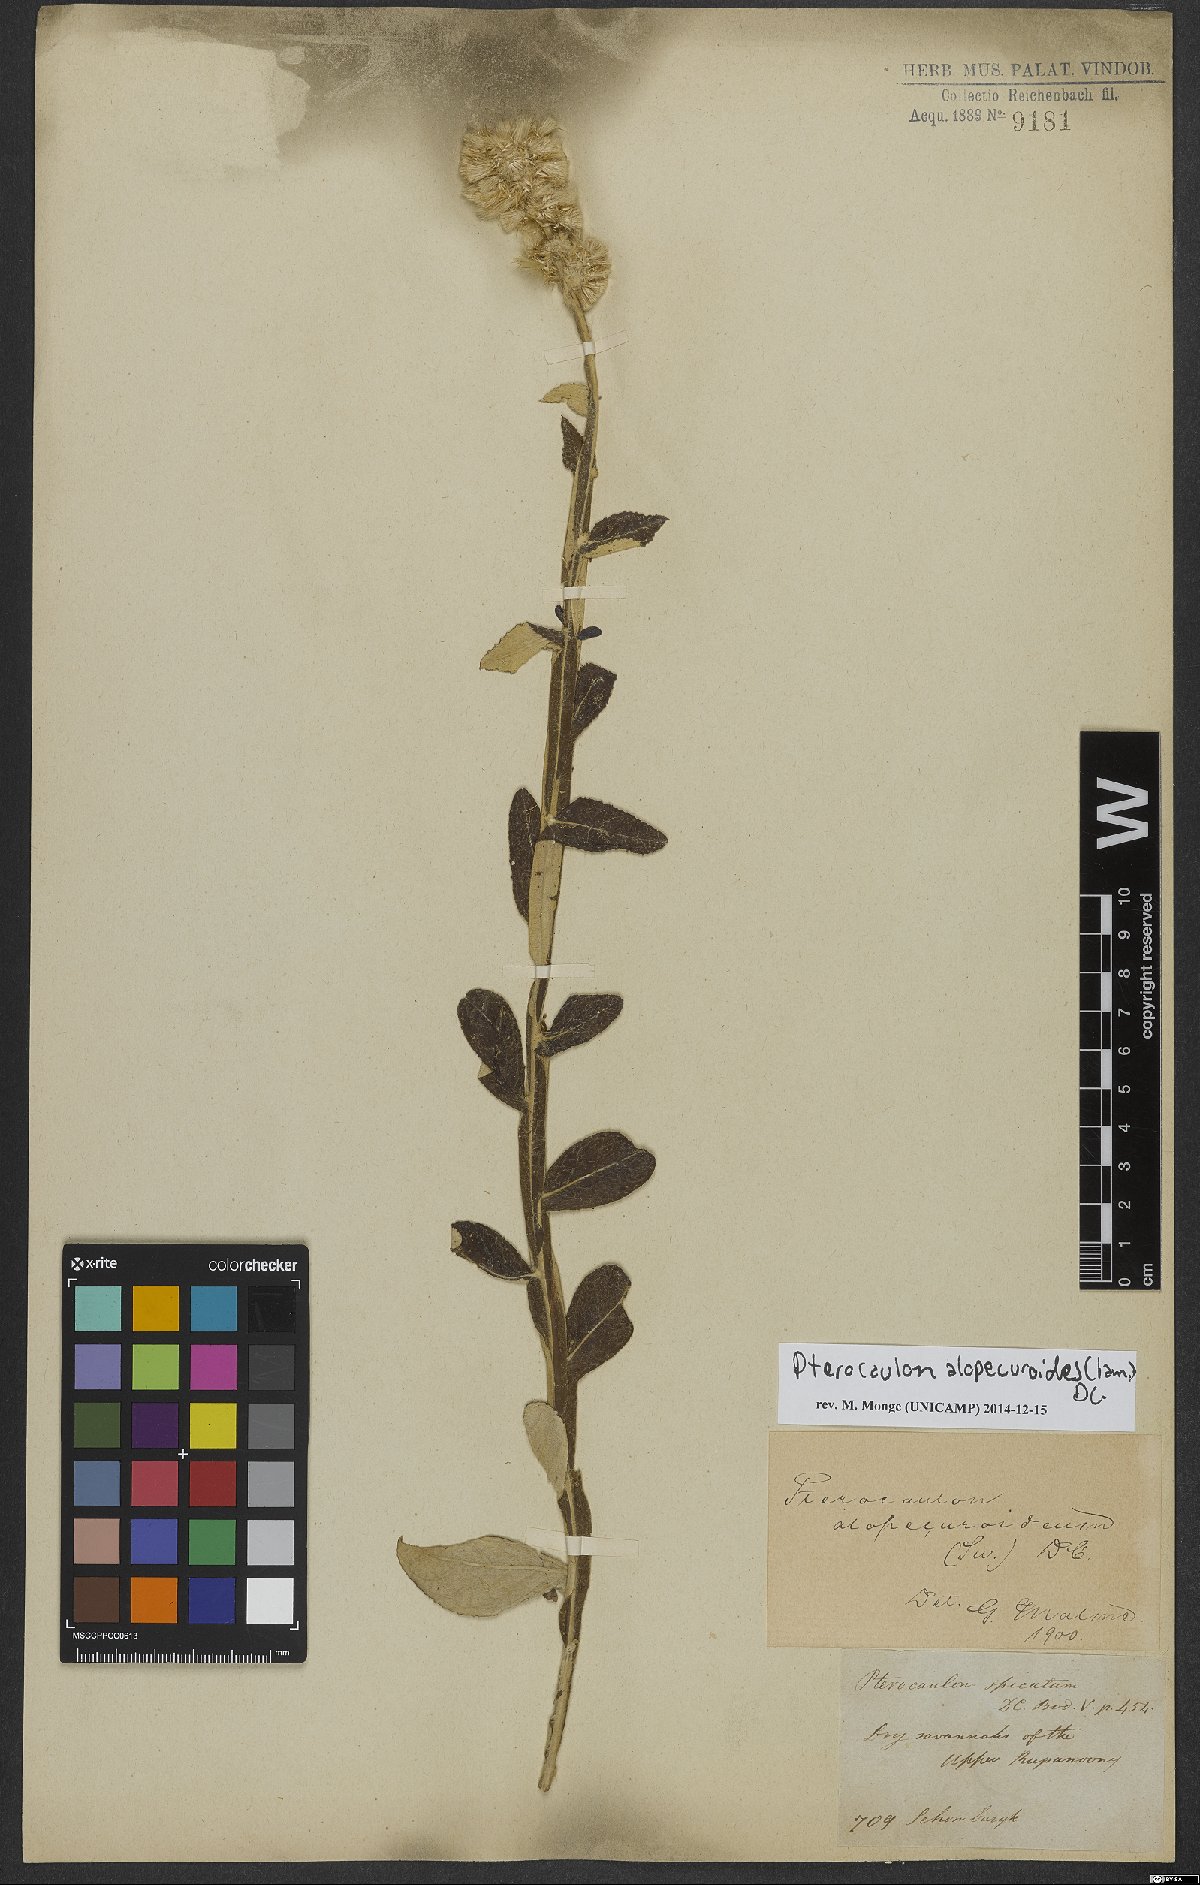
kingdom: Plantae
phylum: Tracheophyta
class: Magnoliopsida
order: Asterales
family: Asteraceae
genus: Pterocaulon
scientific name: Pterocaulon alopecuroides
